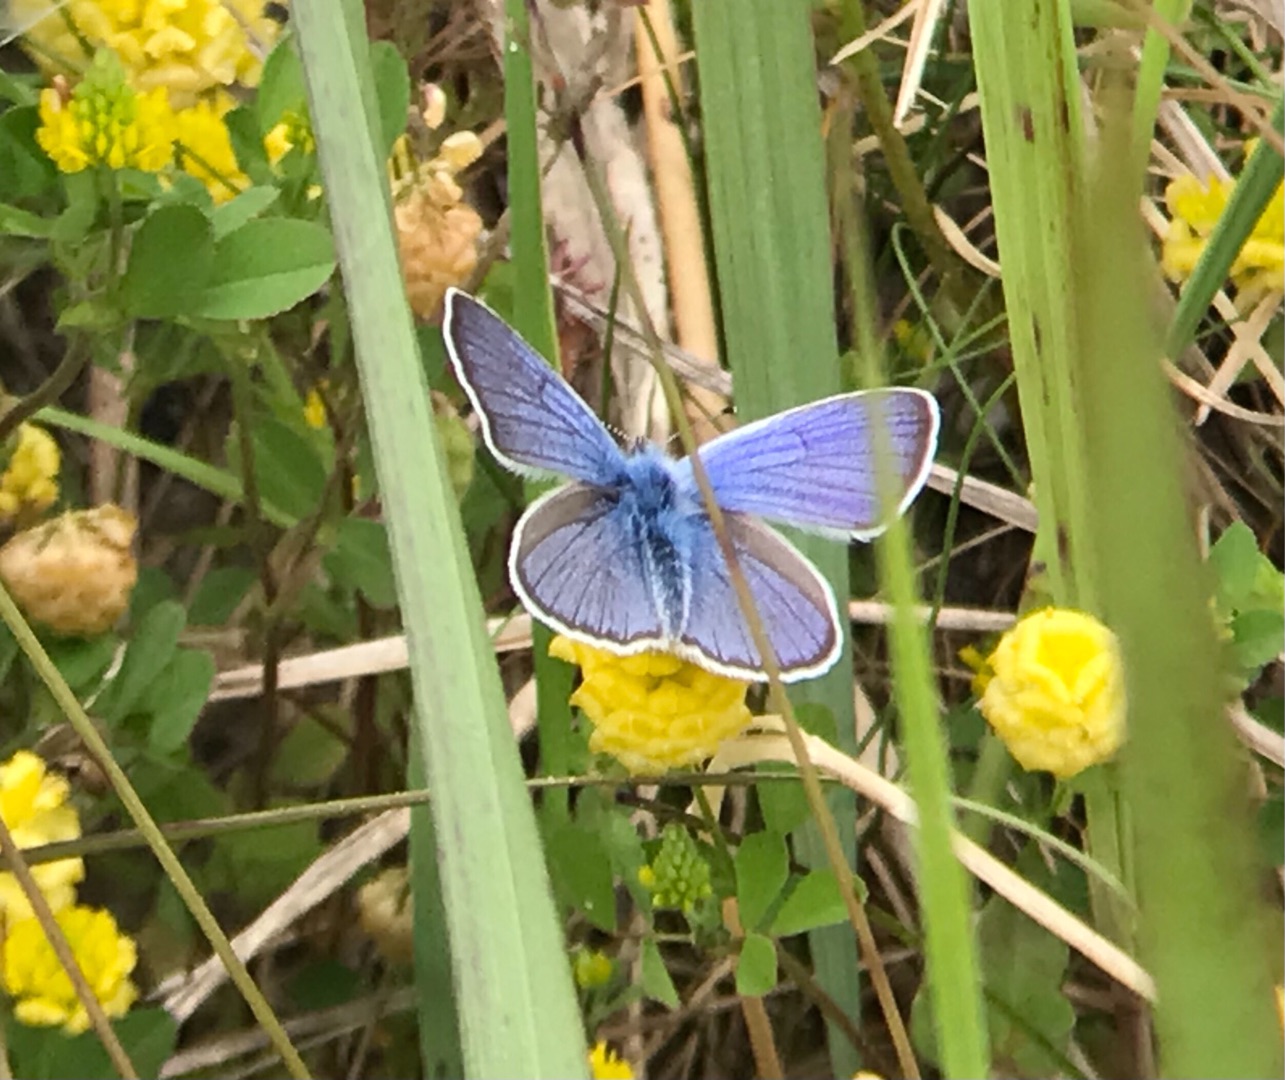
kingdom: Animalia
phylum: Arthropoda
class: Insecta
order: Lepidoptera
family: Lycaenidae
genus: Cyaniris
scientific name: Cyaniris semiargus
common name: Engblåfugl
